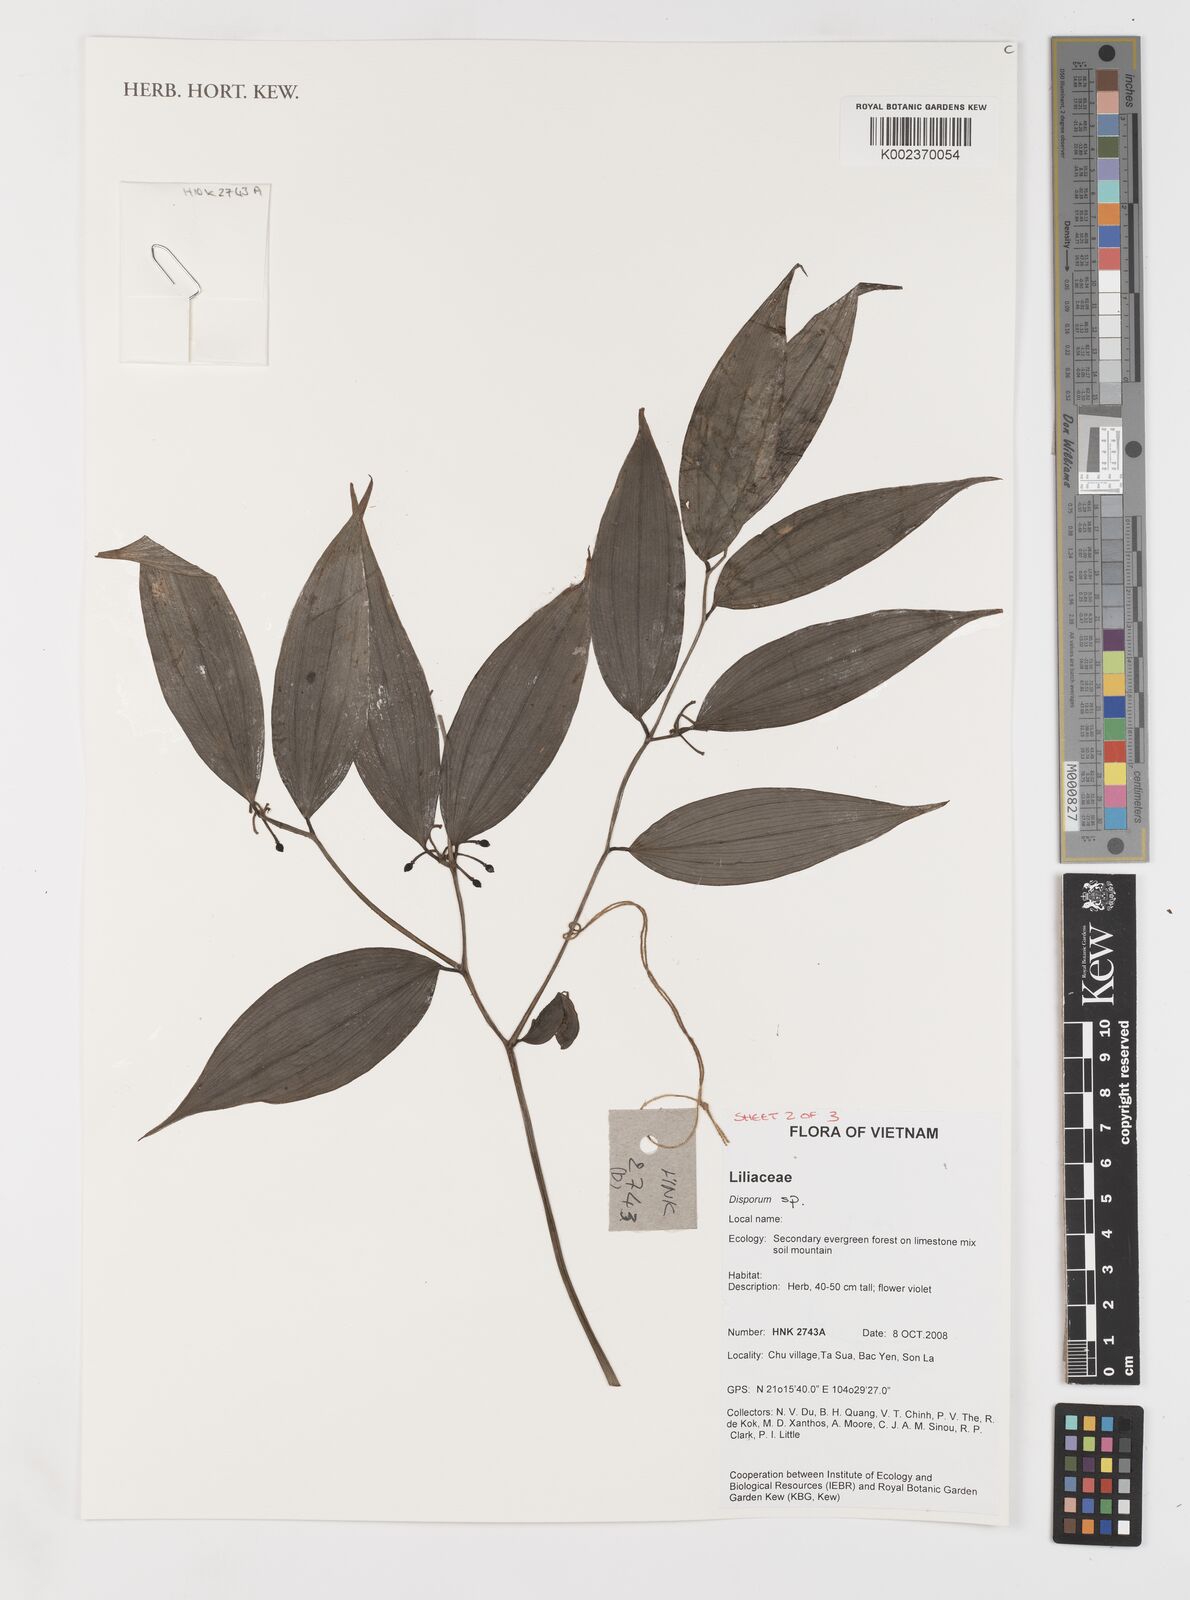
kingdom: Plantae
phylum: Tracheophyta
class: Liliopsida
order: Liliales
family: Colchicaceae
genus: Disporum
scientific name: Disporum
